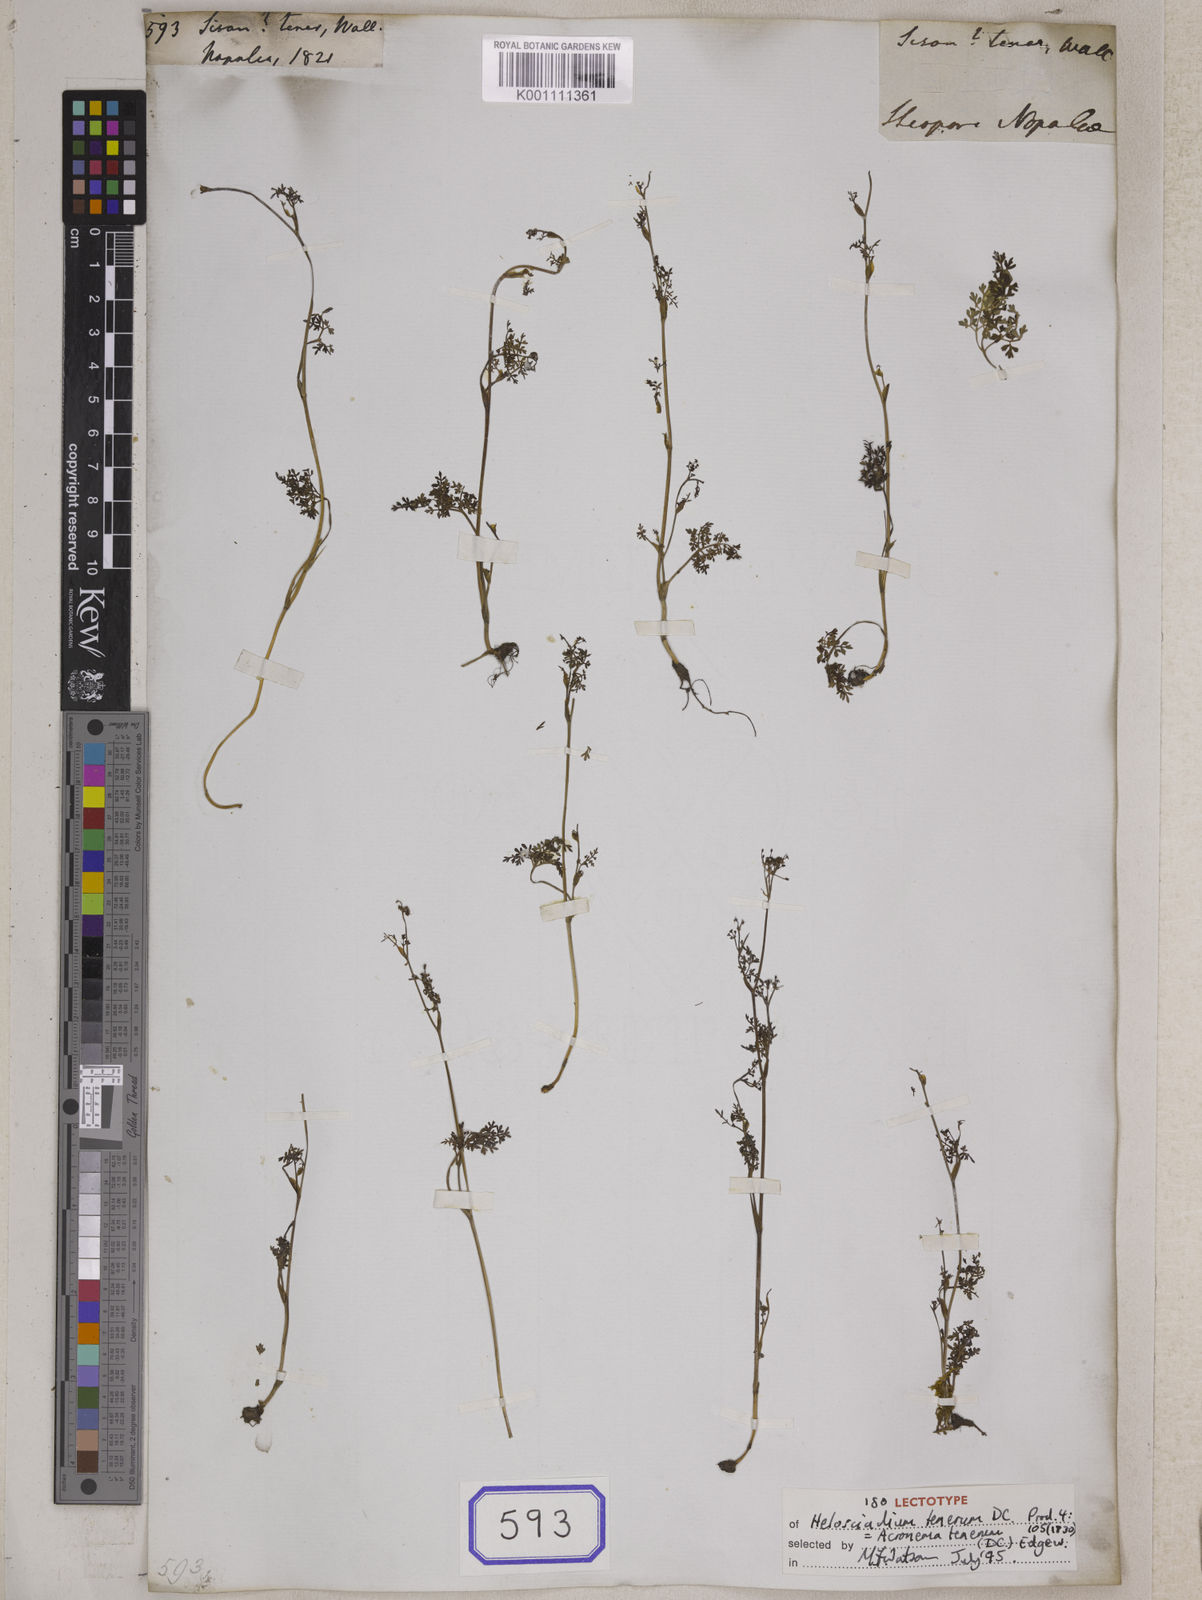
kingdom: Plantae
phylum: Tracheophyta
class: Magnoliopsida
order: Apiales
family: Apiaceae
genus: Acronema
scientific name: Acronema tenerum
